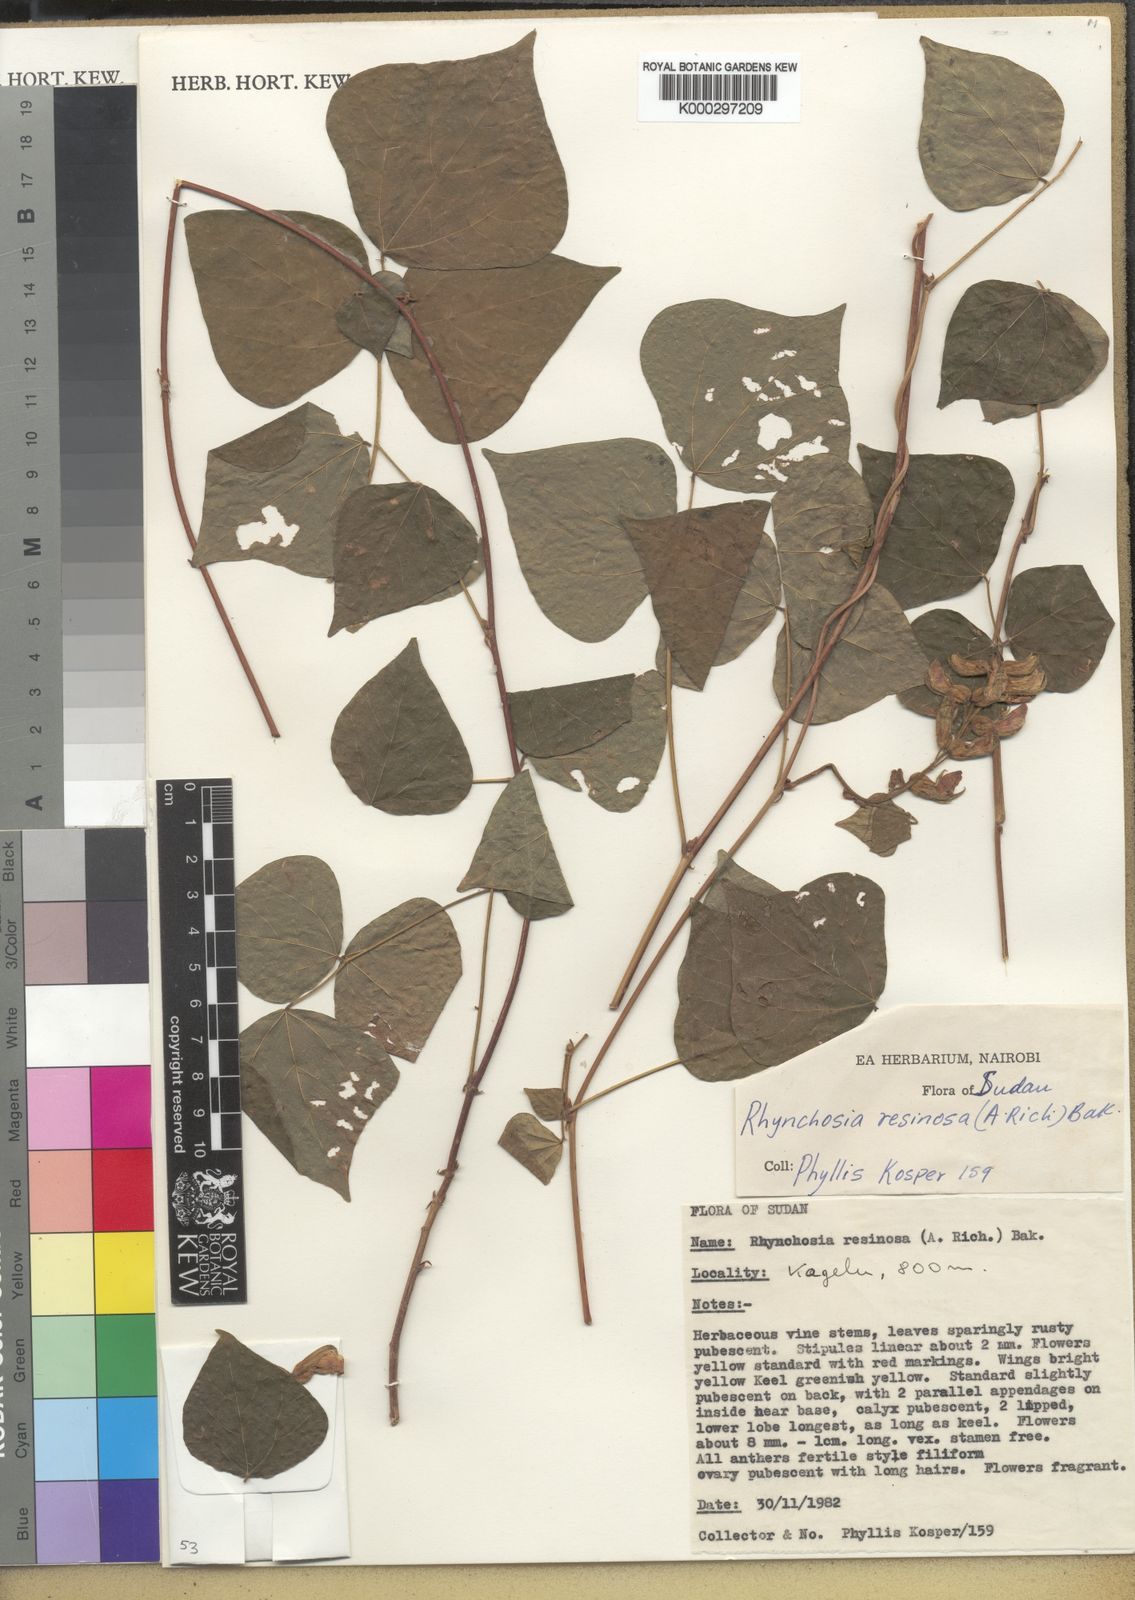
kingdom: Plantae
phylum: Tracheophyta
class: Magnoliopsida
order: Fabales
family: Fabaceae
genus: Rhynchosia
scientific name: Rhynchosia resinosa
